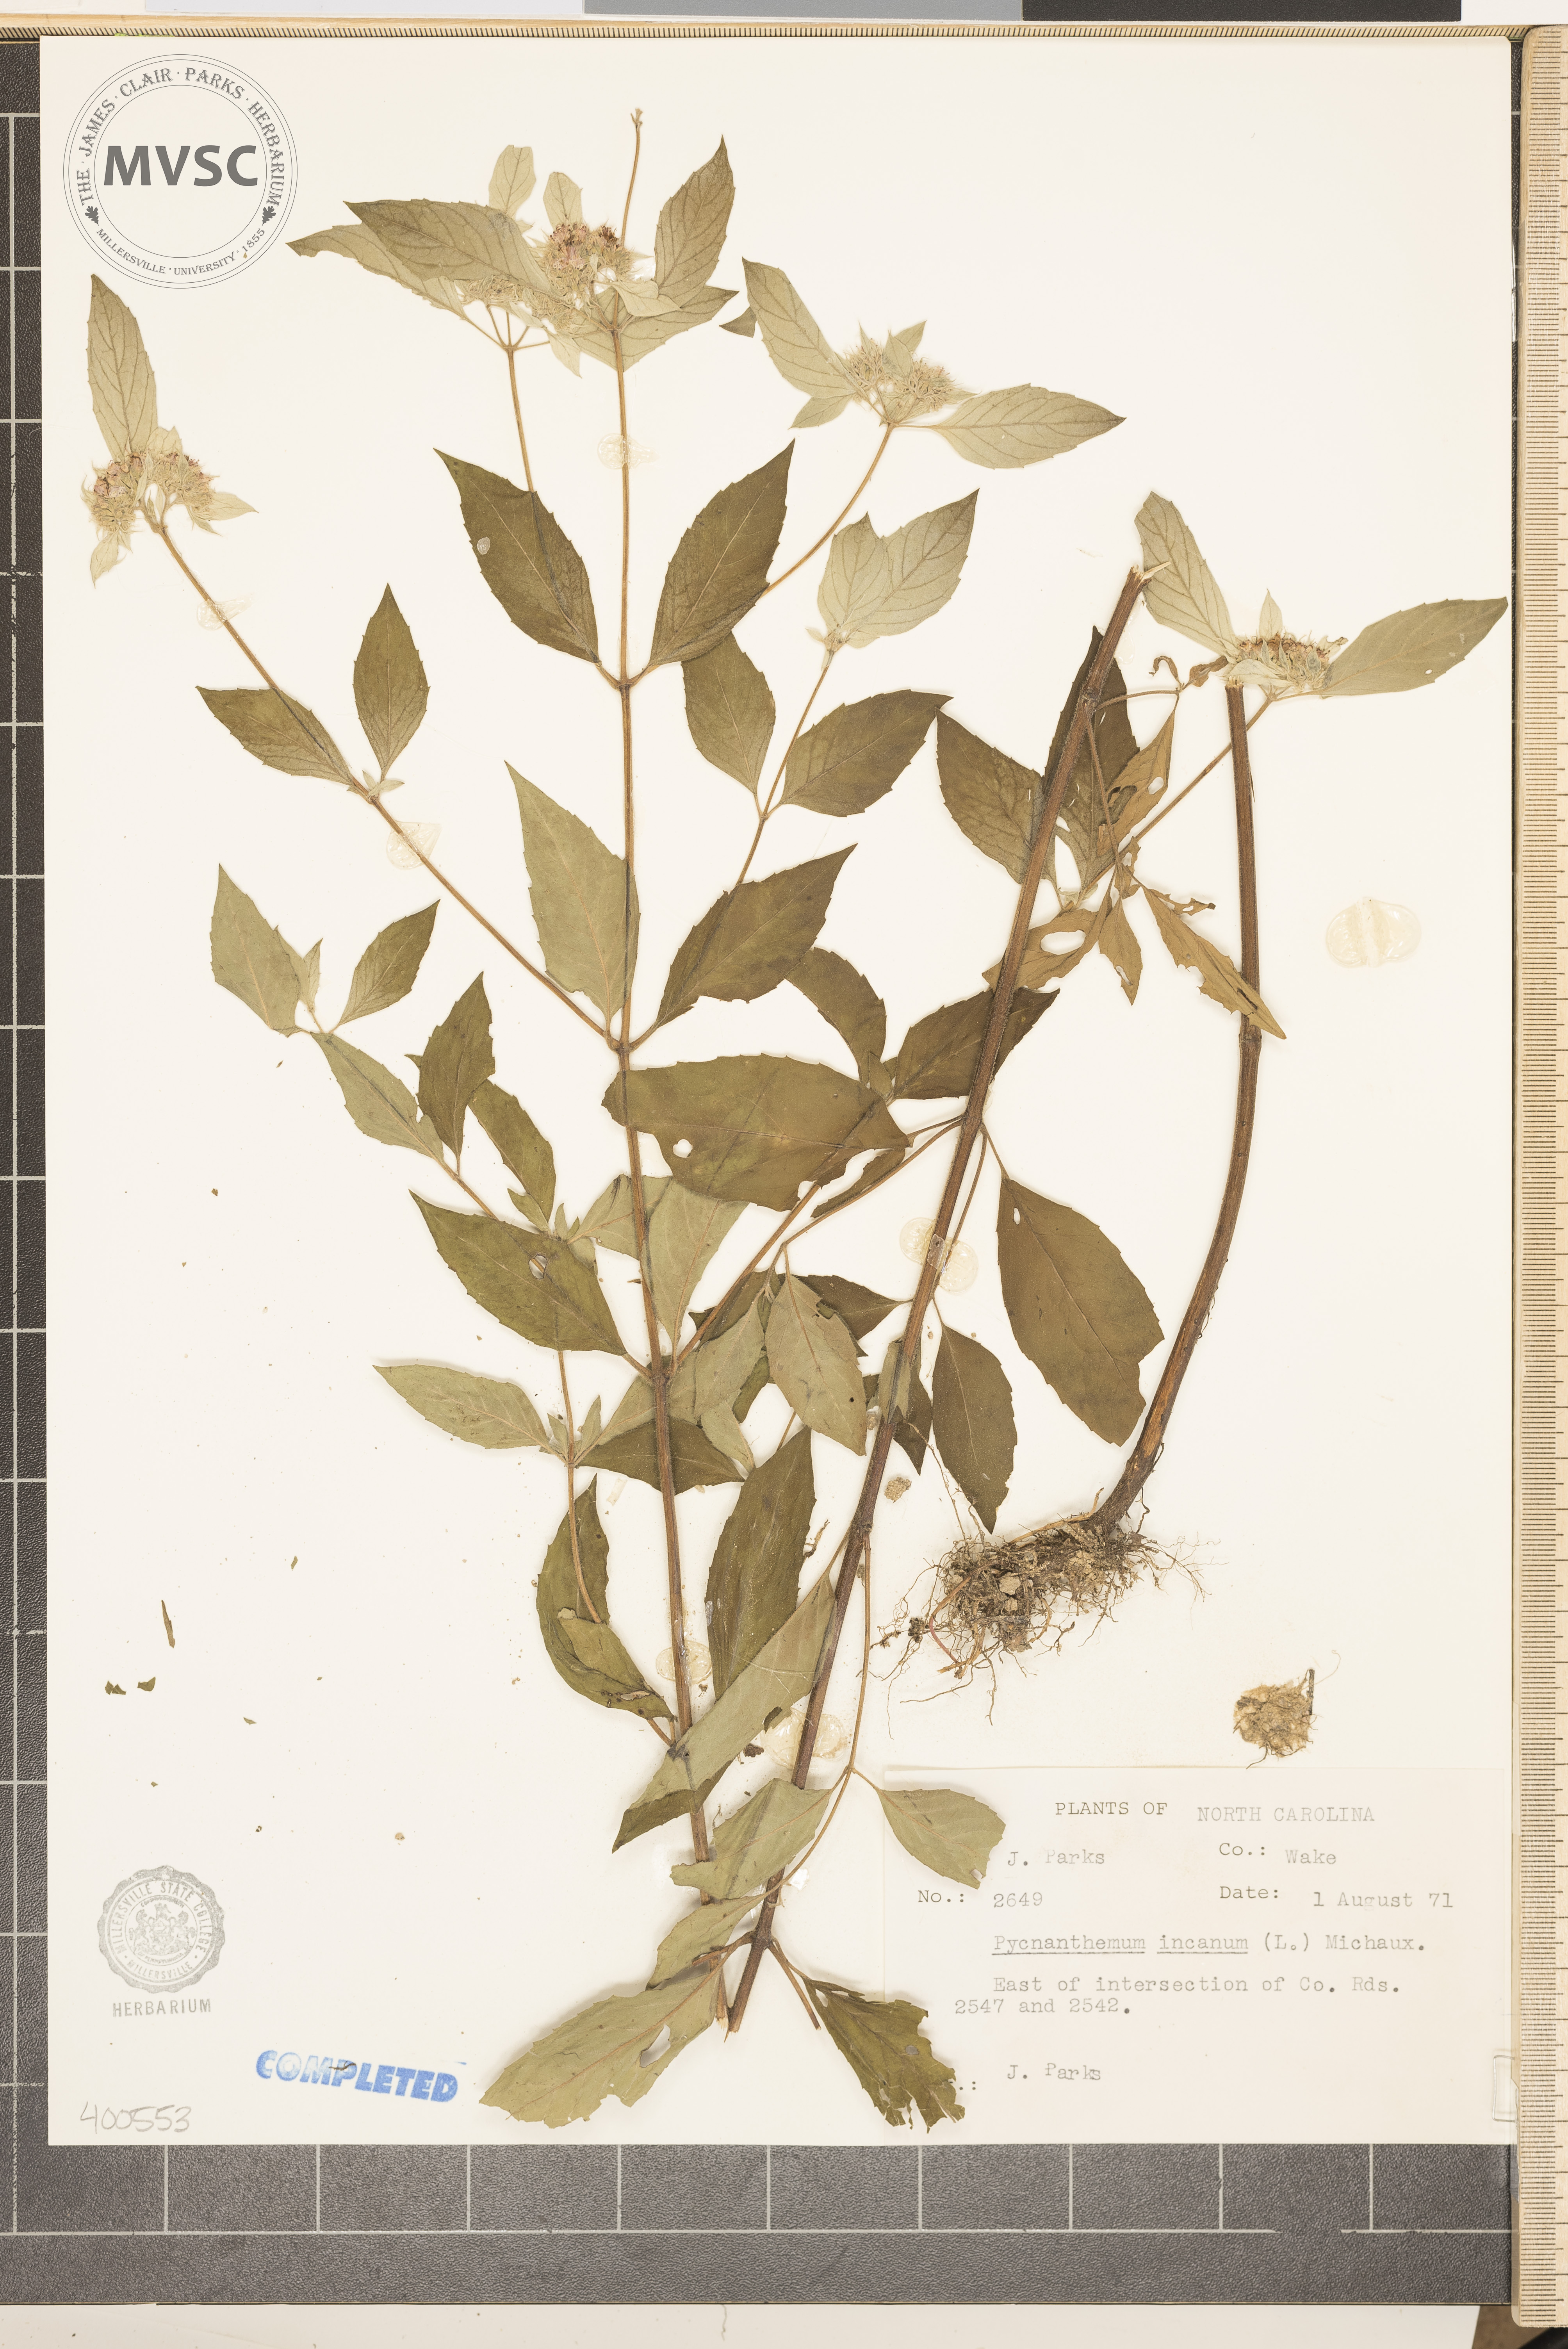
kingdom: Plantae
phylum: Tracheophyta
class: Magnoliopsida
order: Lamiales
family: Lamiaceae
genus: Pycnanthemum
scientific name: Pycnanthemum incanum
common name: mountain mint
